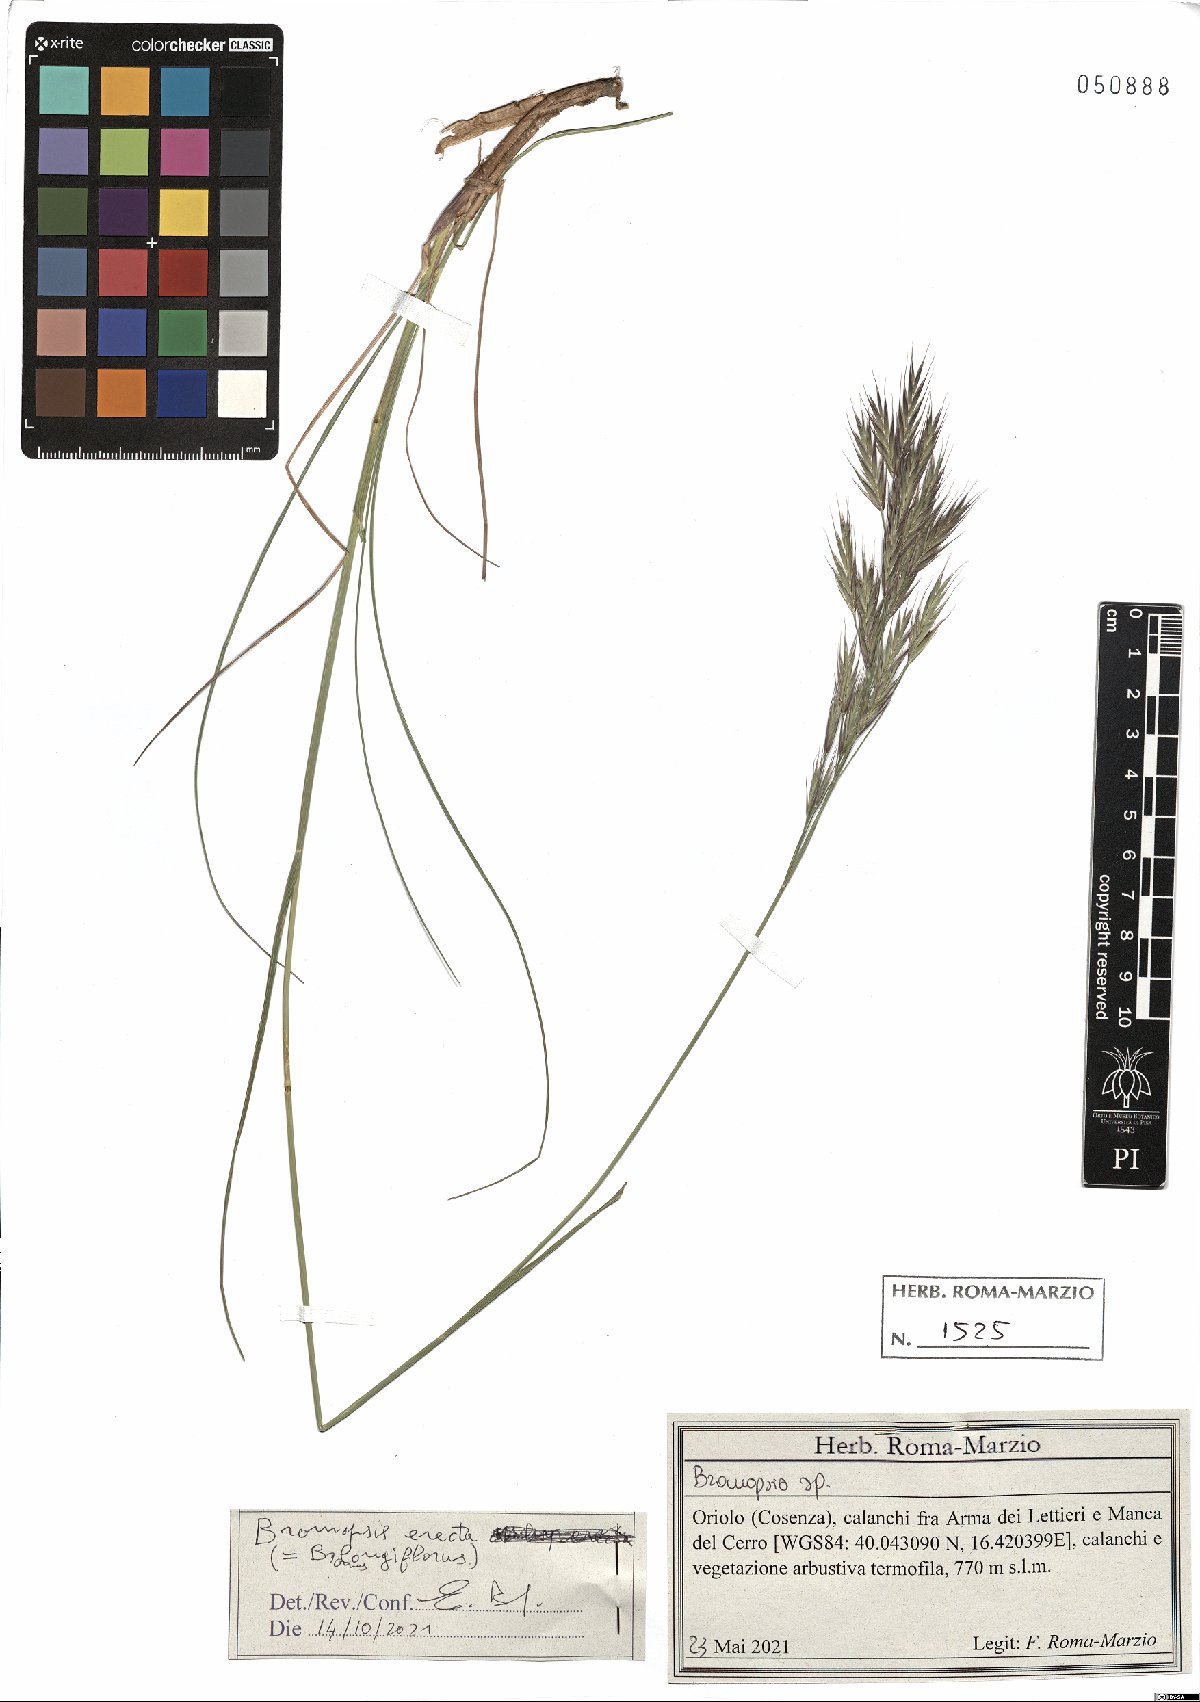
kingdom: Plantae
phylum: Tracheophyta
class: Liliopsida
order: Poales
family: Poaceae
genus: Bromus
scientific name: Bromus erectus
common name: Erect brome
